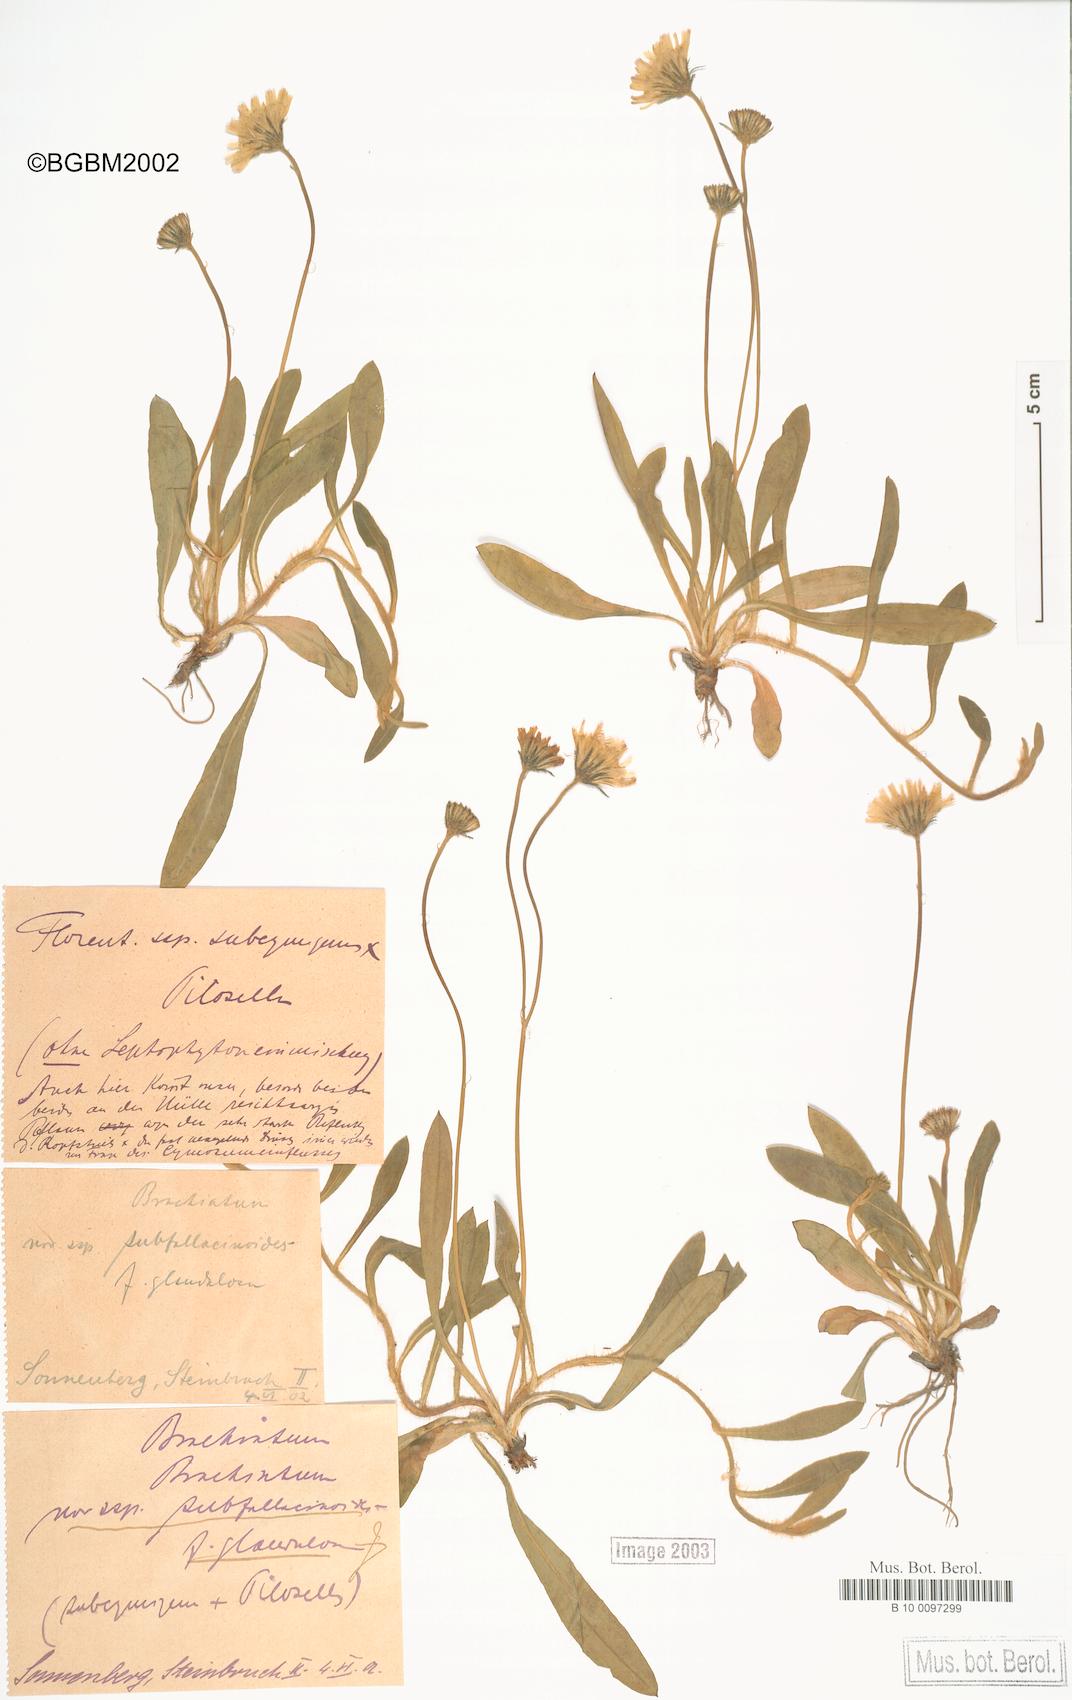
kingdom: Plantae
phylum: Tracheophyta
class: Magnoliopsida
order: Asterales
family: Asteraceae
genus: Pilosella
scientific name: Pilosella acutifolia
